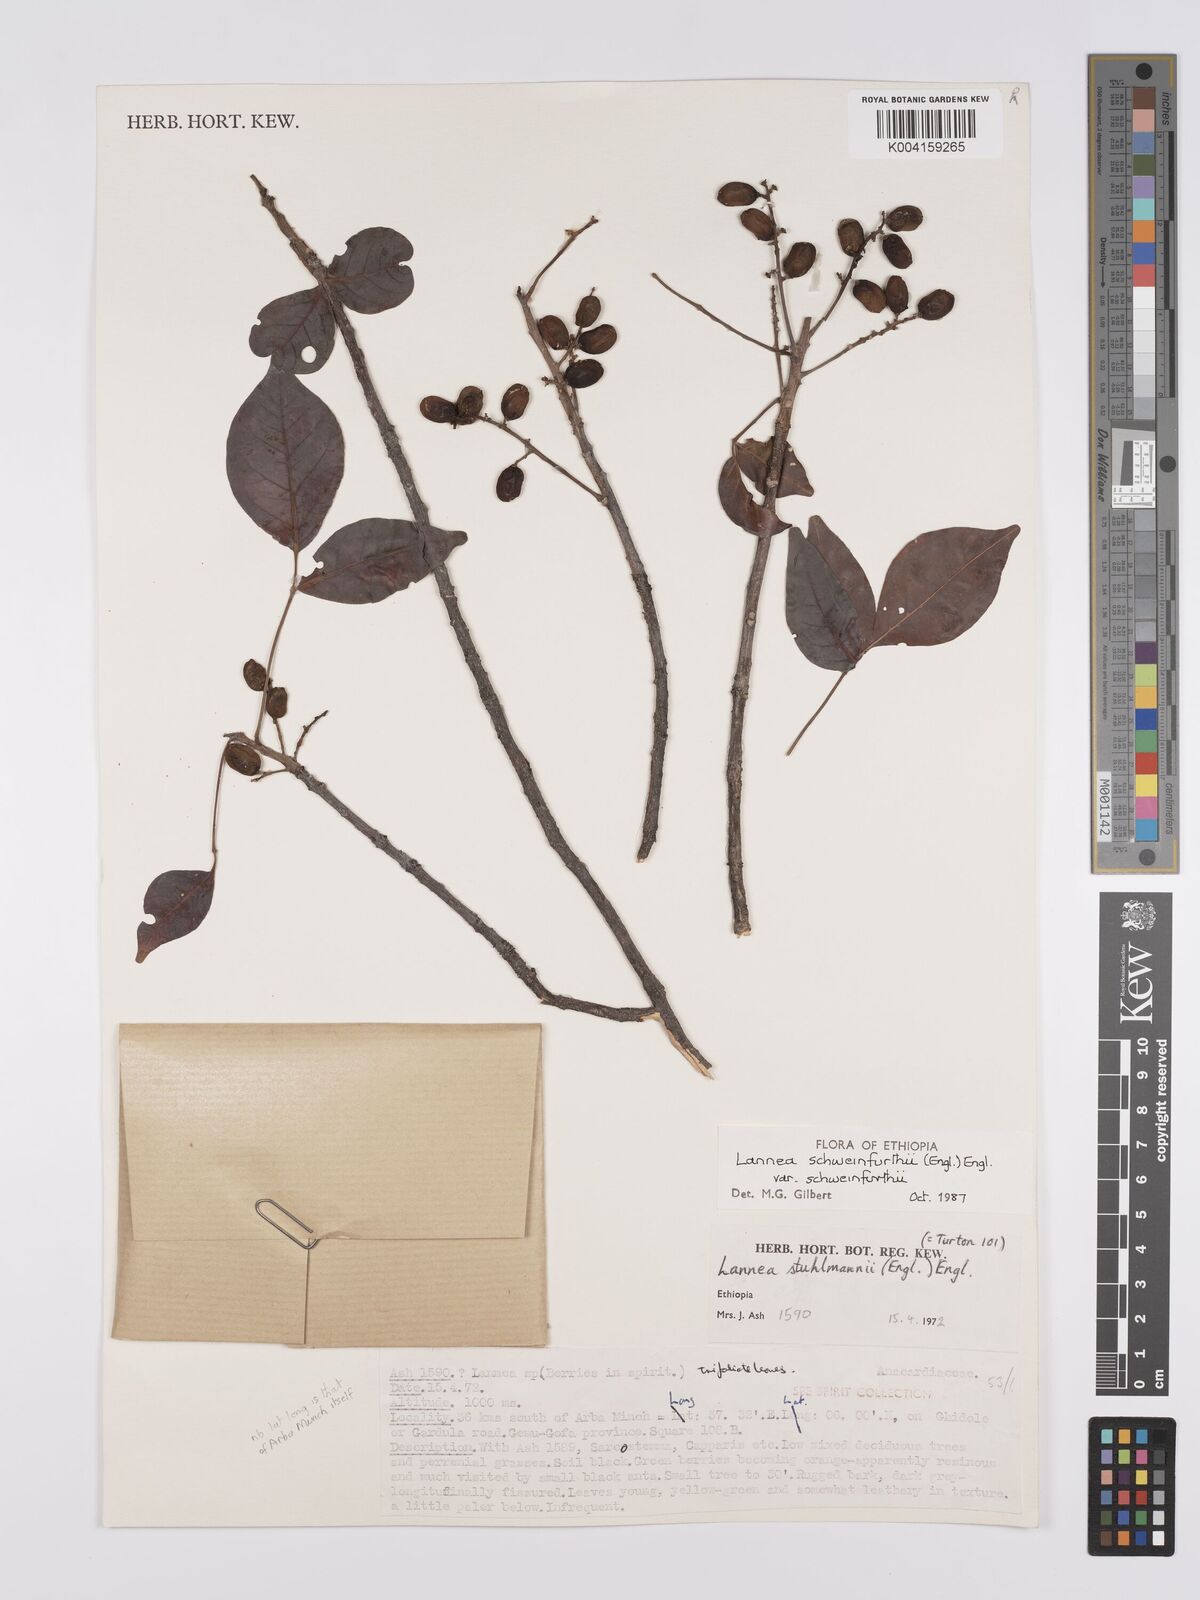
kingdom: Plantae
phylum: Tracheophyta
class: Magnoliopsida
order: Sapindales
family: Anacardiaceae
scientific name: Anacardiaceae
